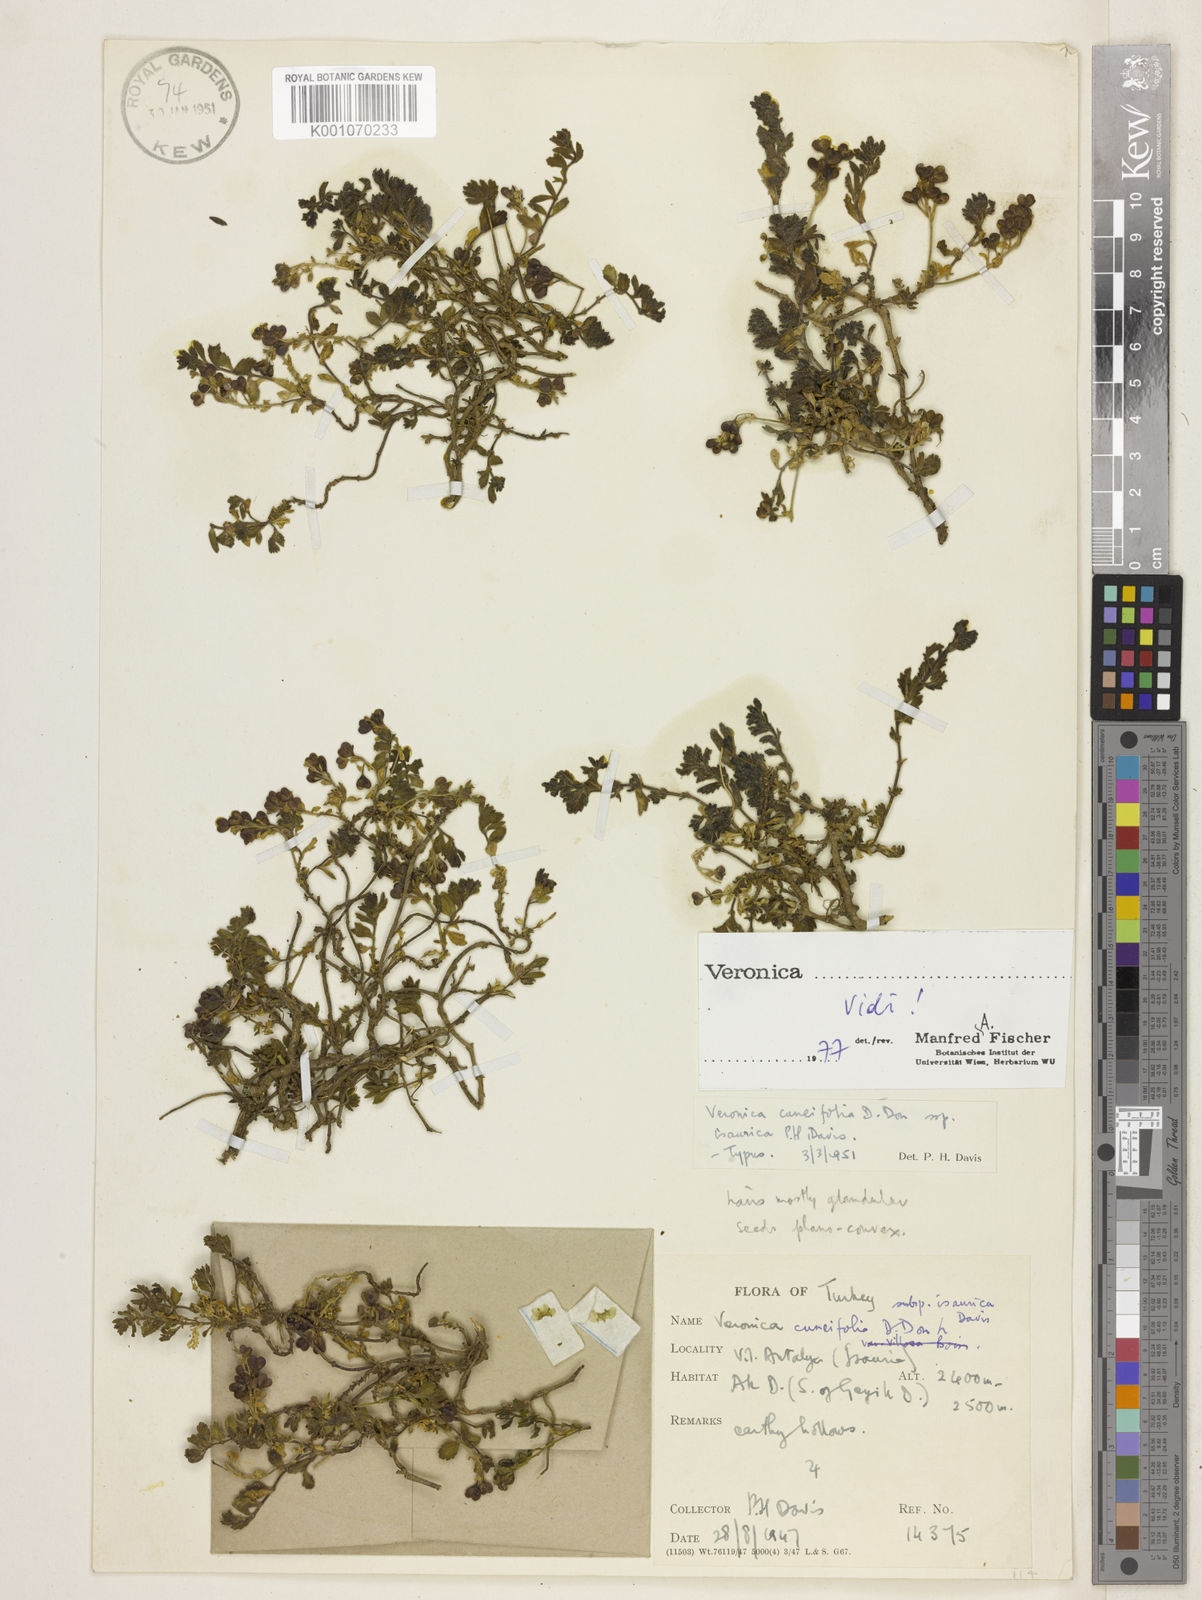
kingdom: Plantae
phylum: Tracheophyta
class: Magnoliopsida
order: Lamiales
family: Plantaginaceae
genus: Veronica
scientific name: Veronica cuneifolia
